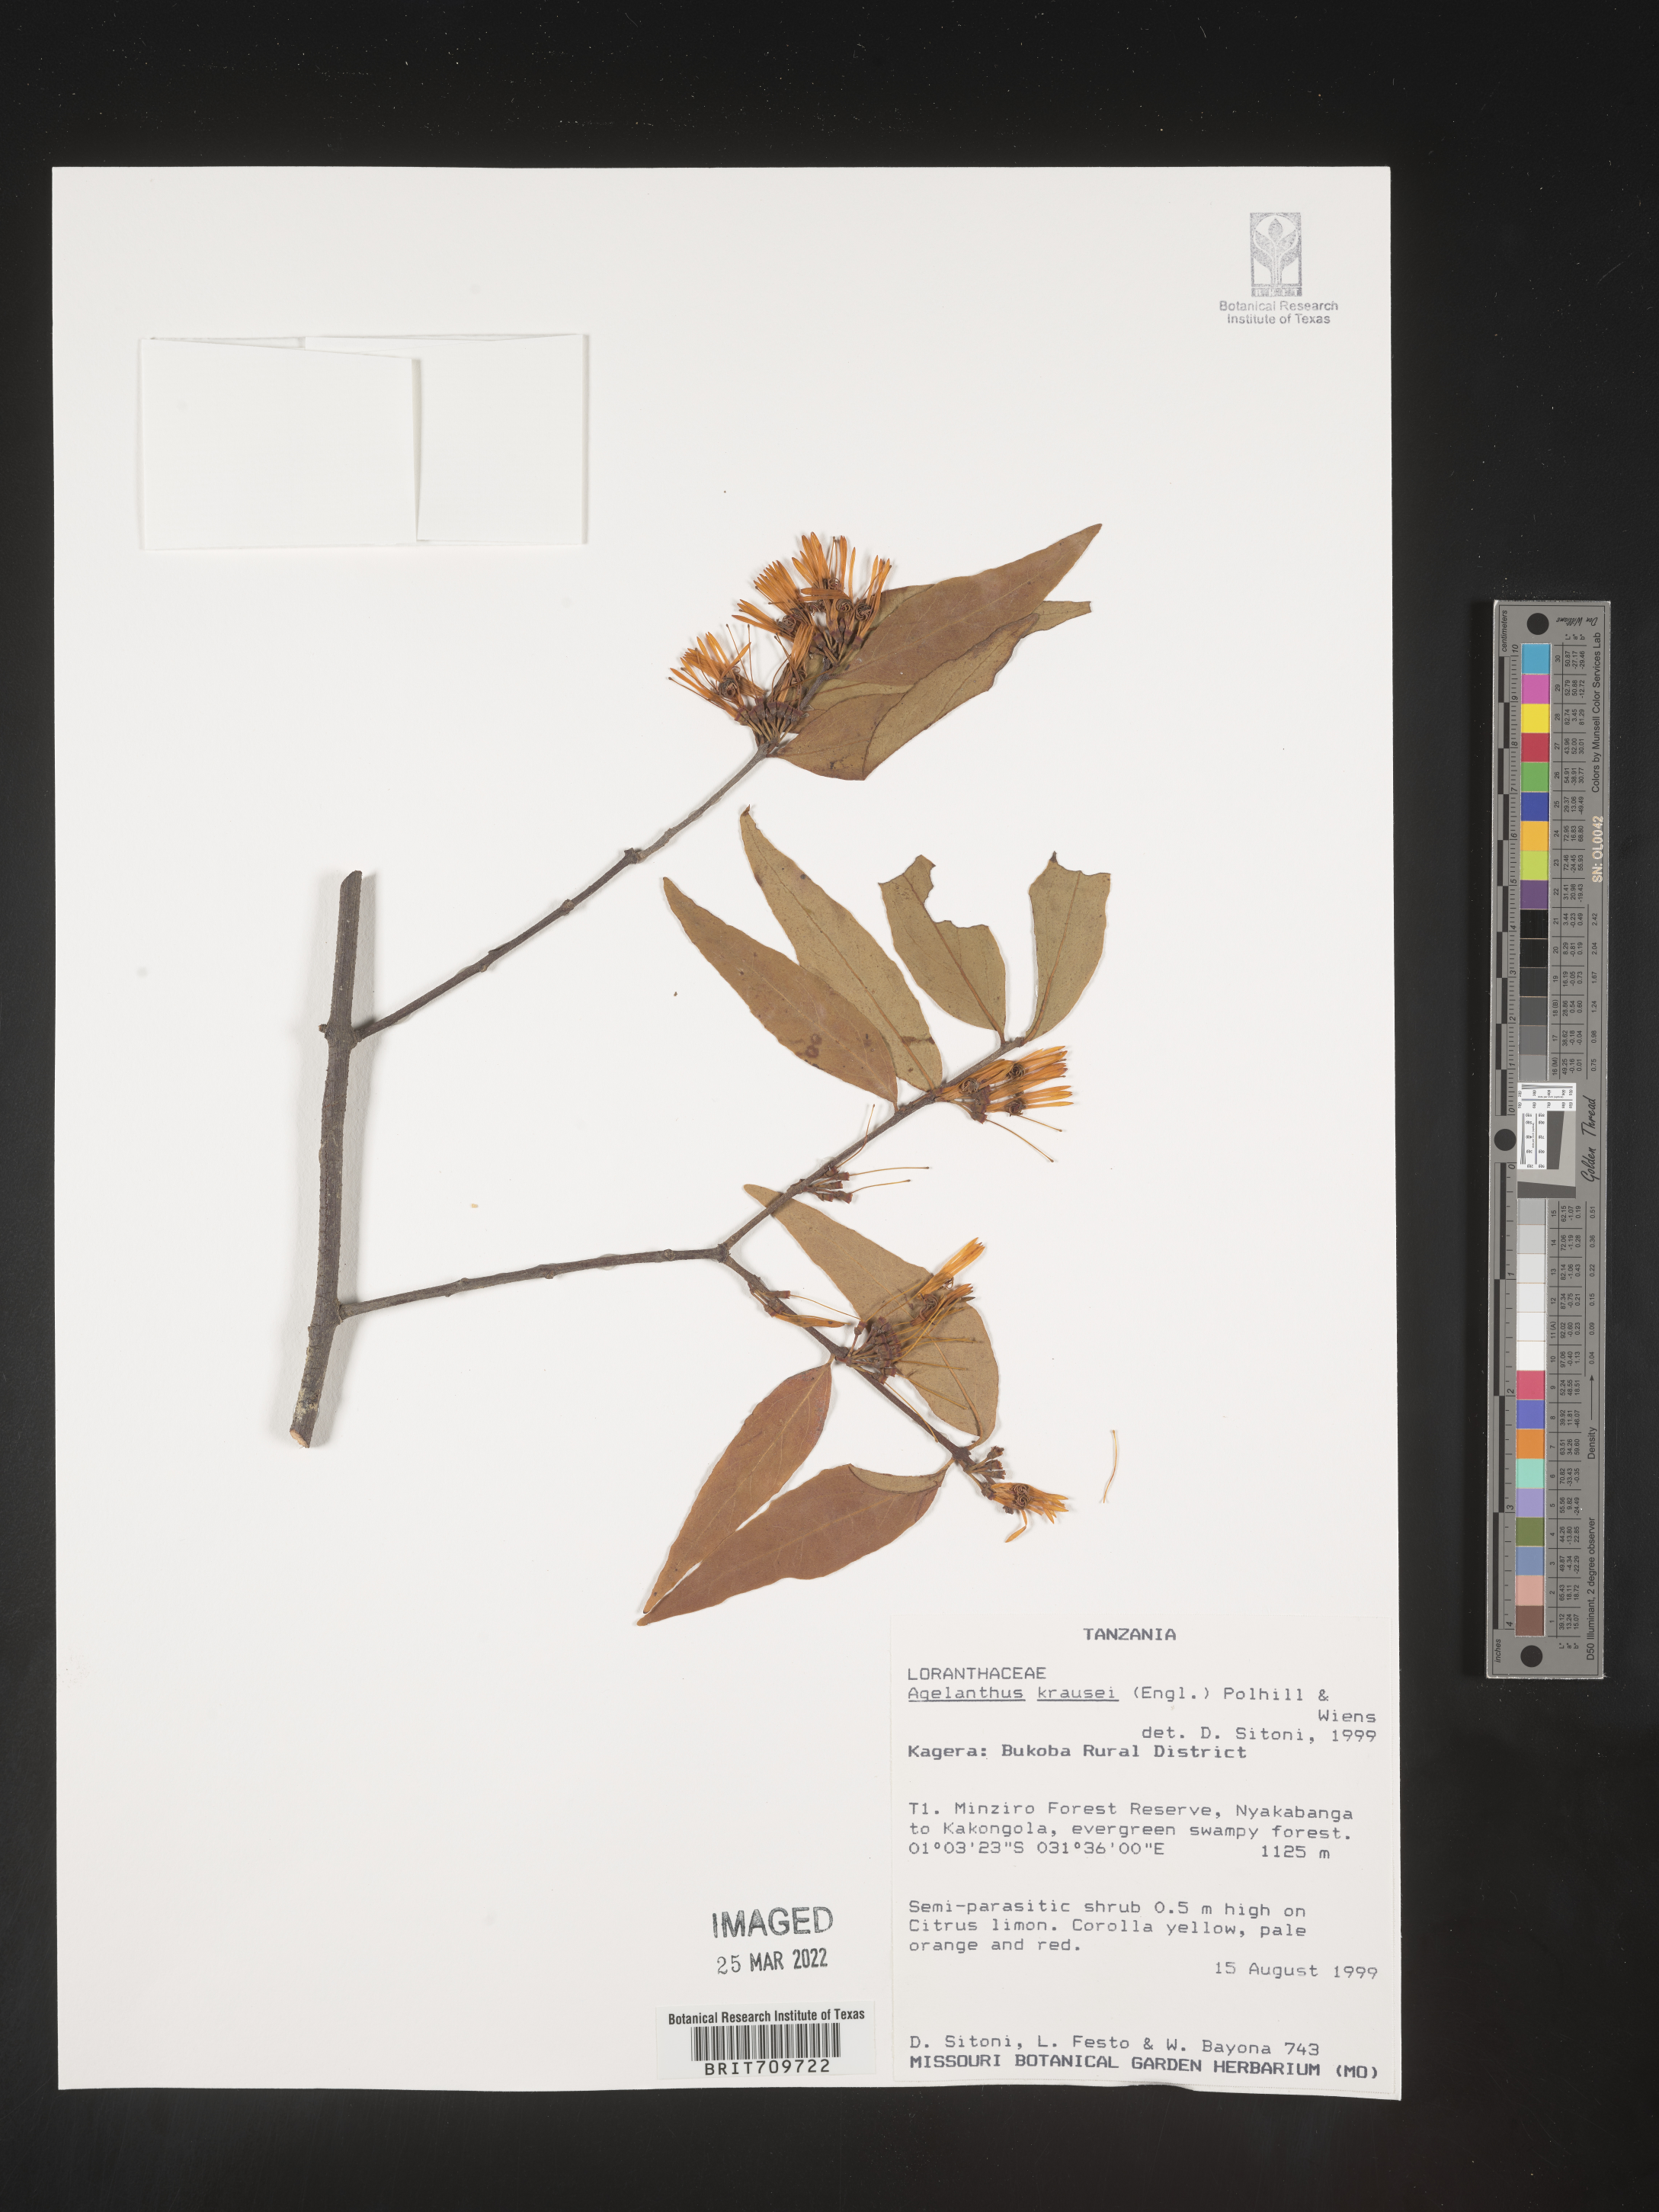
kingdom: Plantae
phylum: Tracheophyta
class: Magnoliopsida
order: Santalales
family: Loranthaceae
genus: Agelanthus
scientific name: Agelanthus
